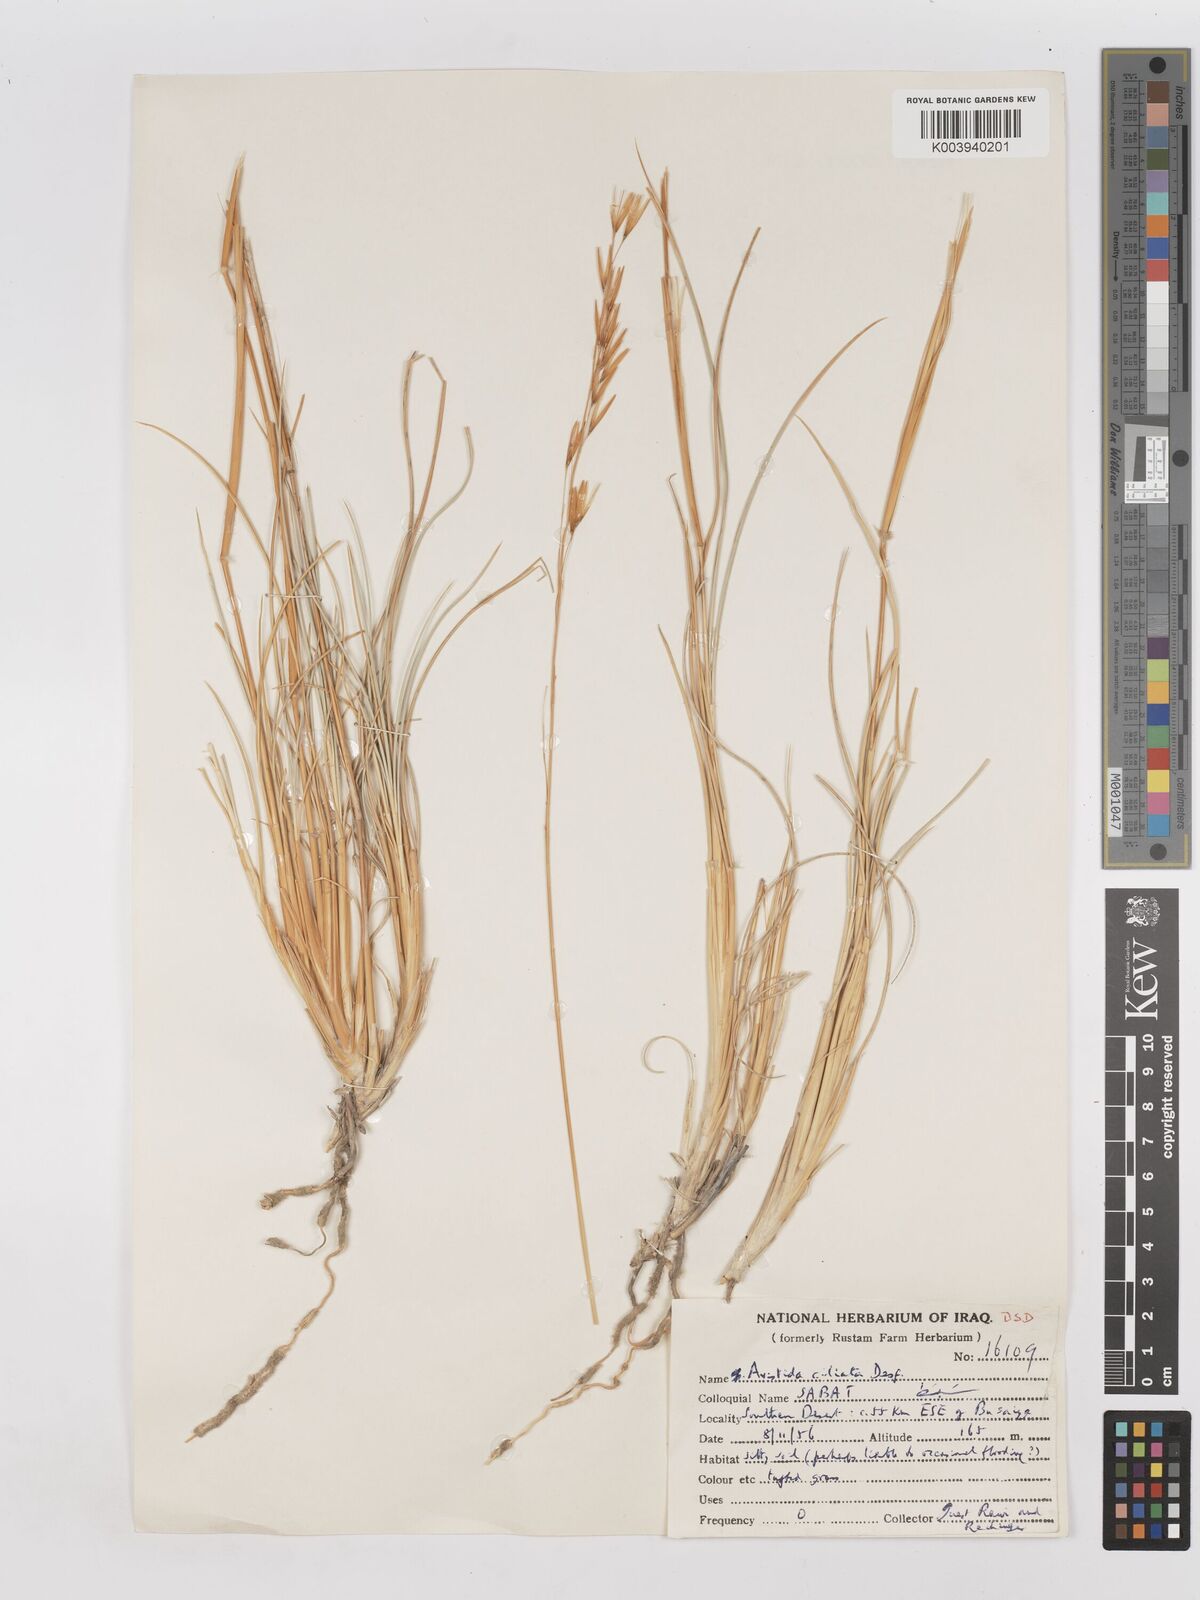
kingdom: Plantae
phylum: Tracheophyta
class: Liliopsida
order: Poales
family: Poaceae
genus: Stipagrostis
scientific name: Stipagrostis ciliata
